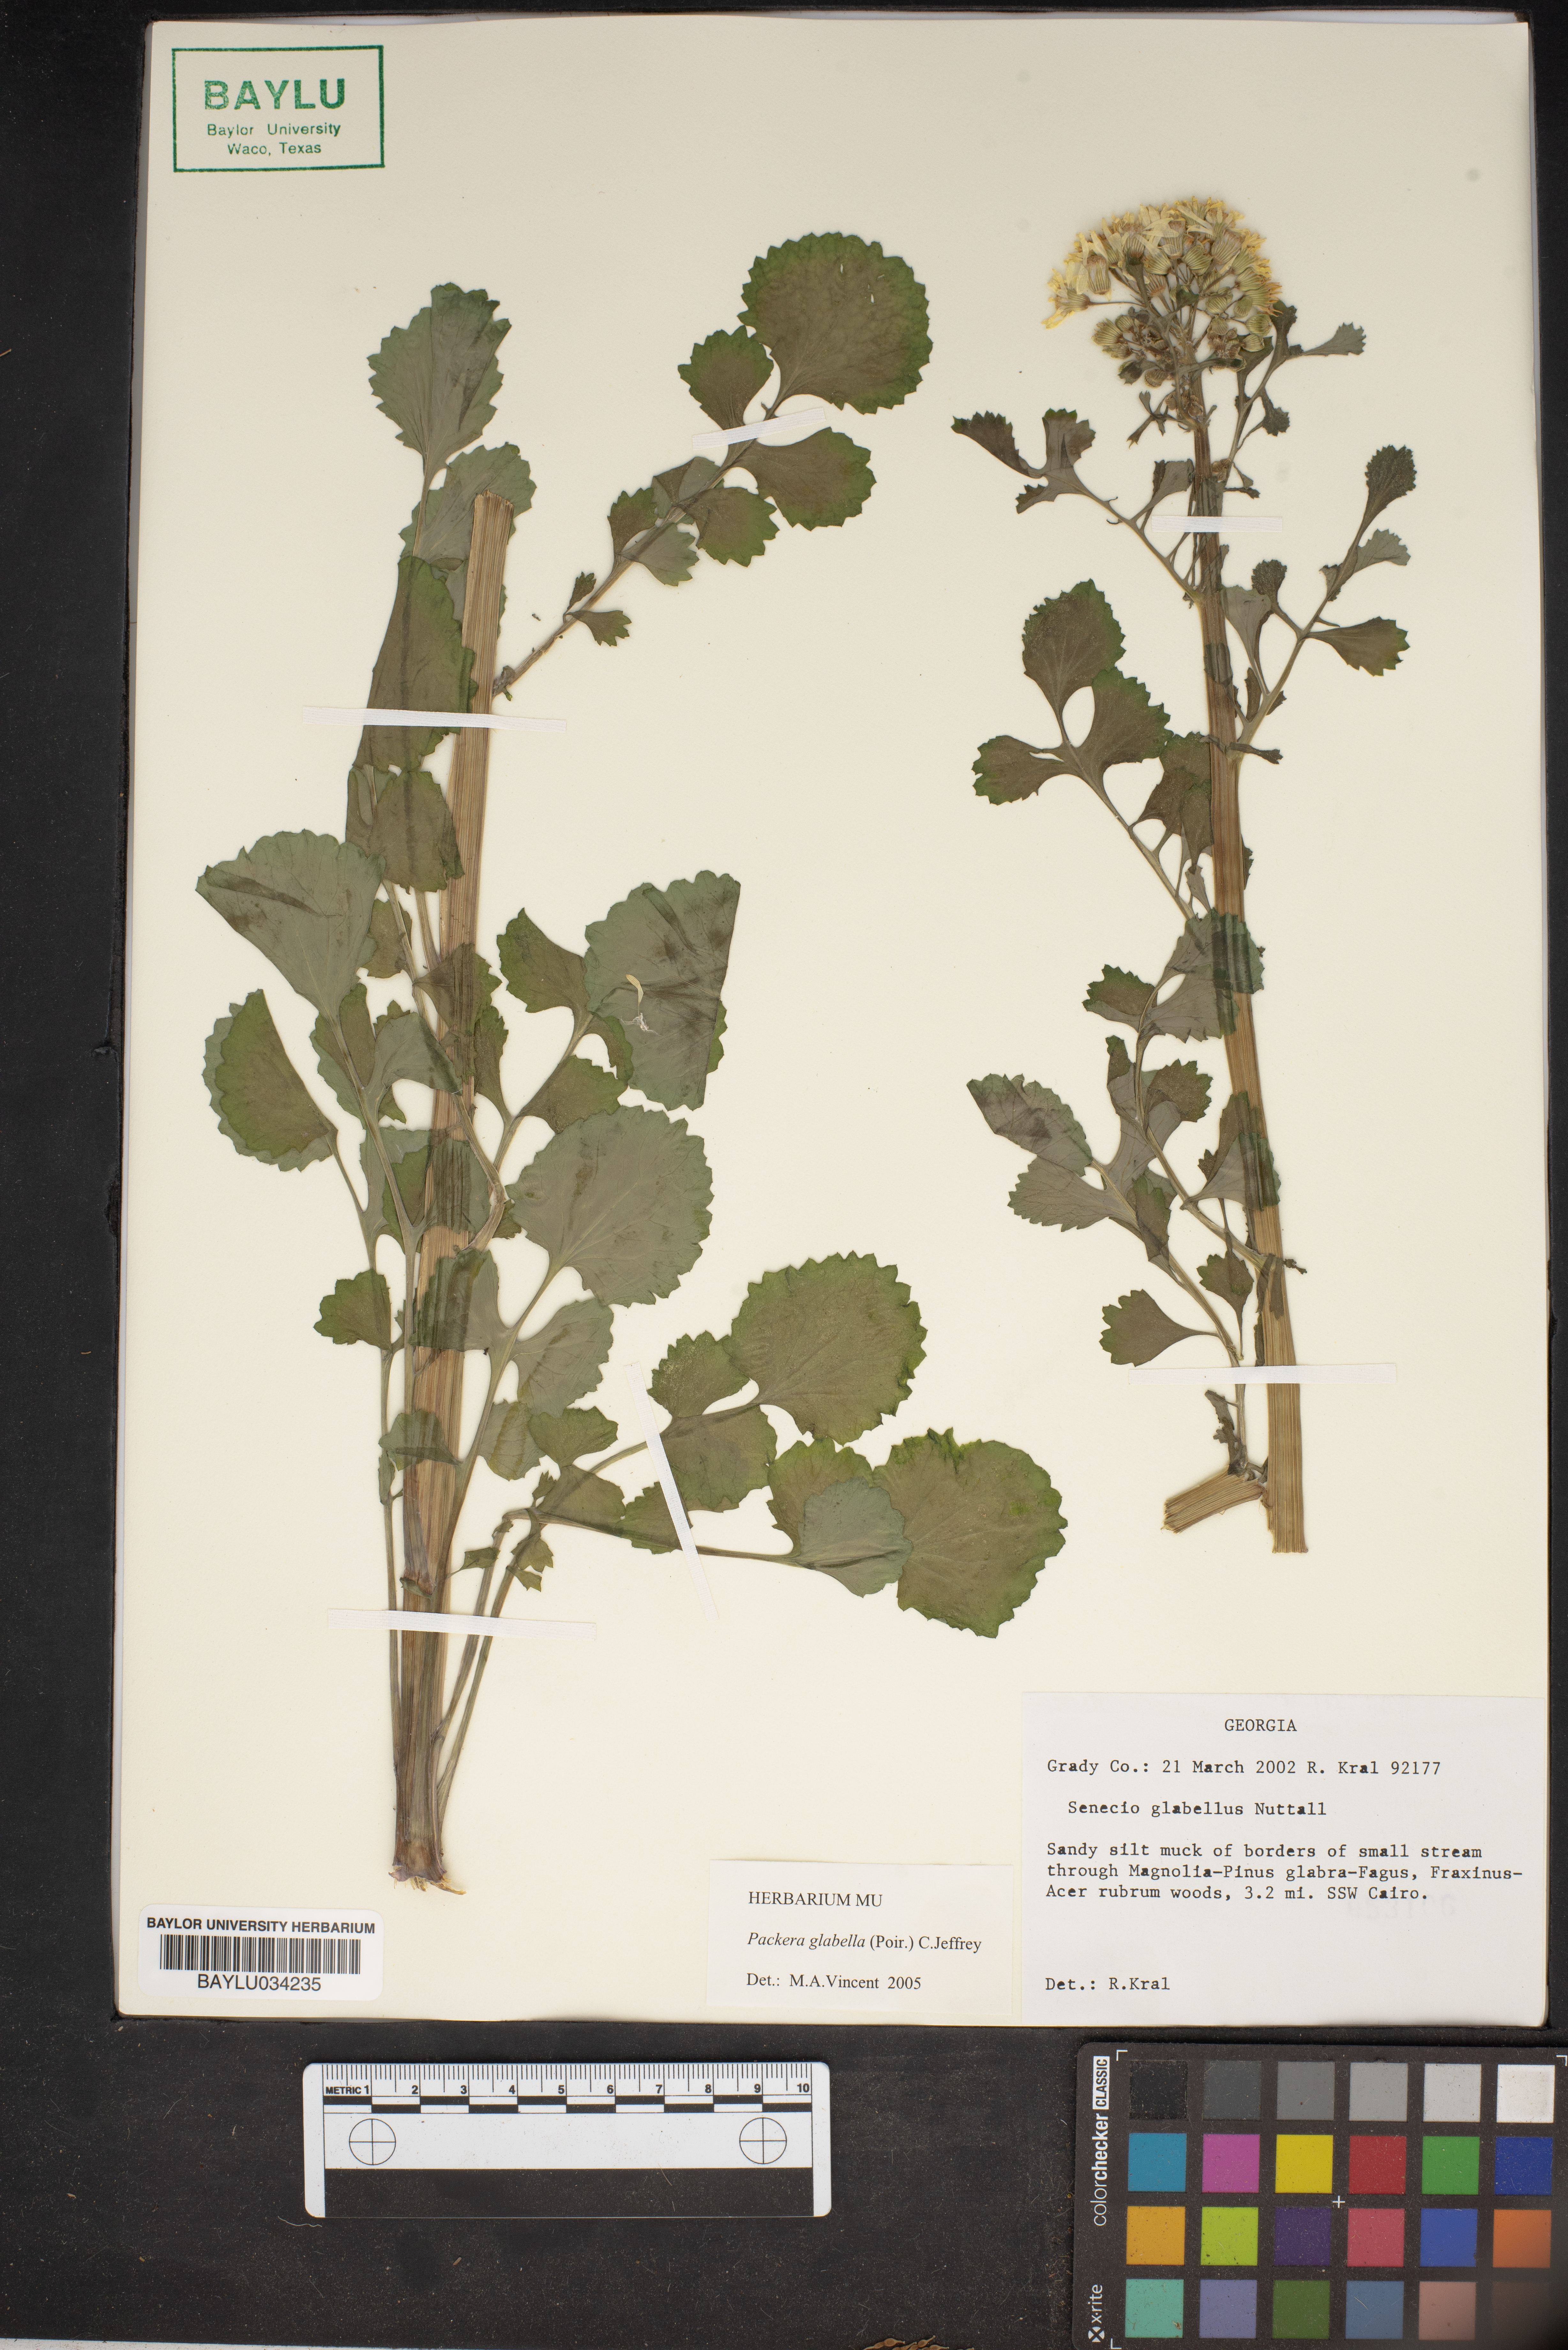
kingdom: Plantae
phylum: Tracheophyta
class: Magnoliopsida
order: Asterales
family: Asteraceae
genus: Packera
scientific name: Packera glabella
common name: Butterweed
